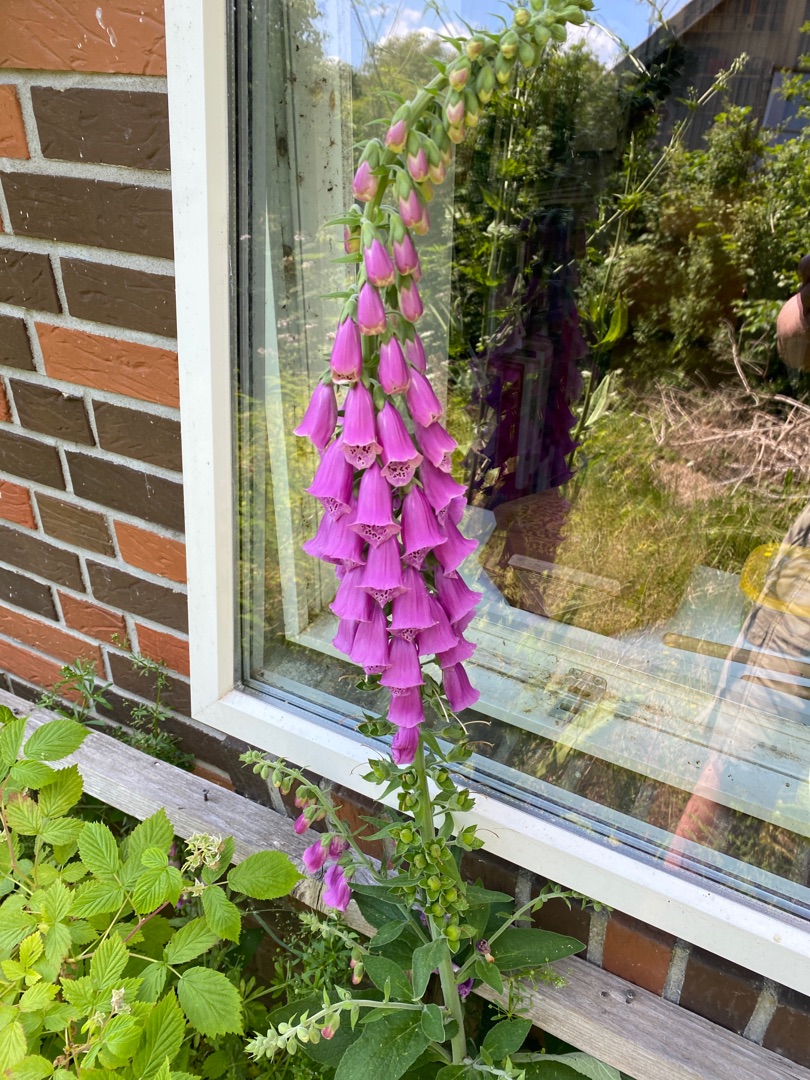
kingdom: Plantae
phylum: Tracheophyta
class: Magnoliopsida
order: Lamiales
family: Plantaginaceae
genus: Digitalis
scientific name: Digitalis purpurea
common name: Almindelig fingerbøl
